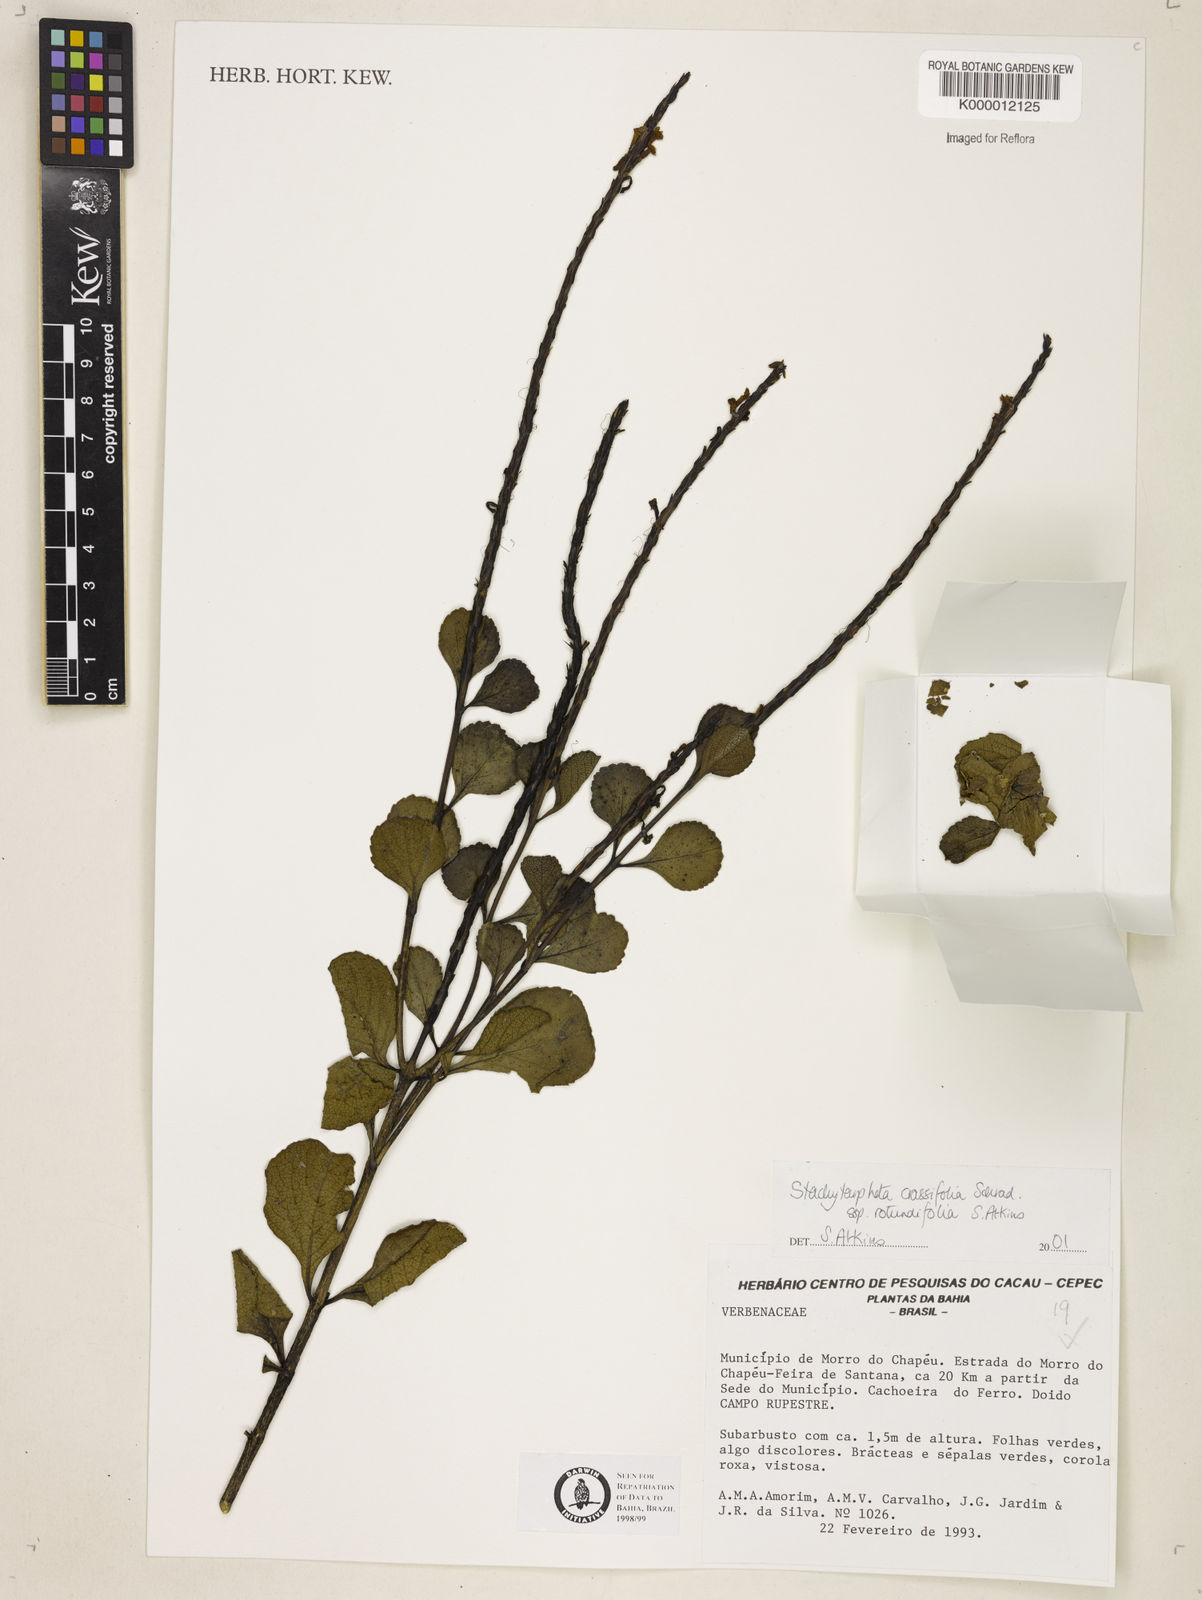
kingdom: Plantae
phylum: Tracheophyta
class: Magnoliopsida
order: Lamiales
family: Verbenaceae
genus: Stachytarpheta
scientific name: Stachytarpheta crassifolia
